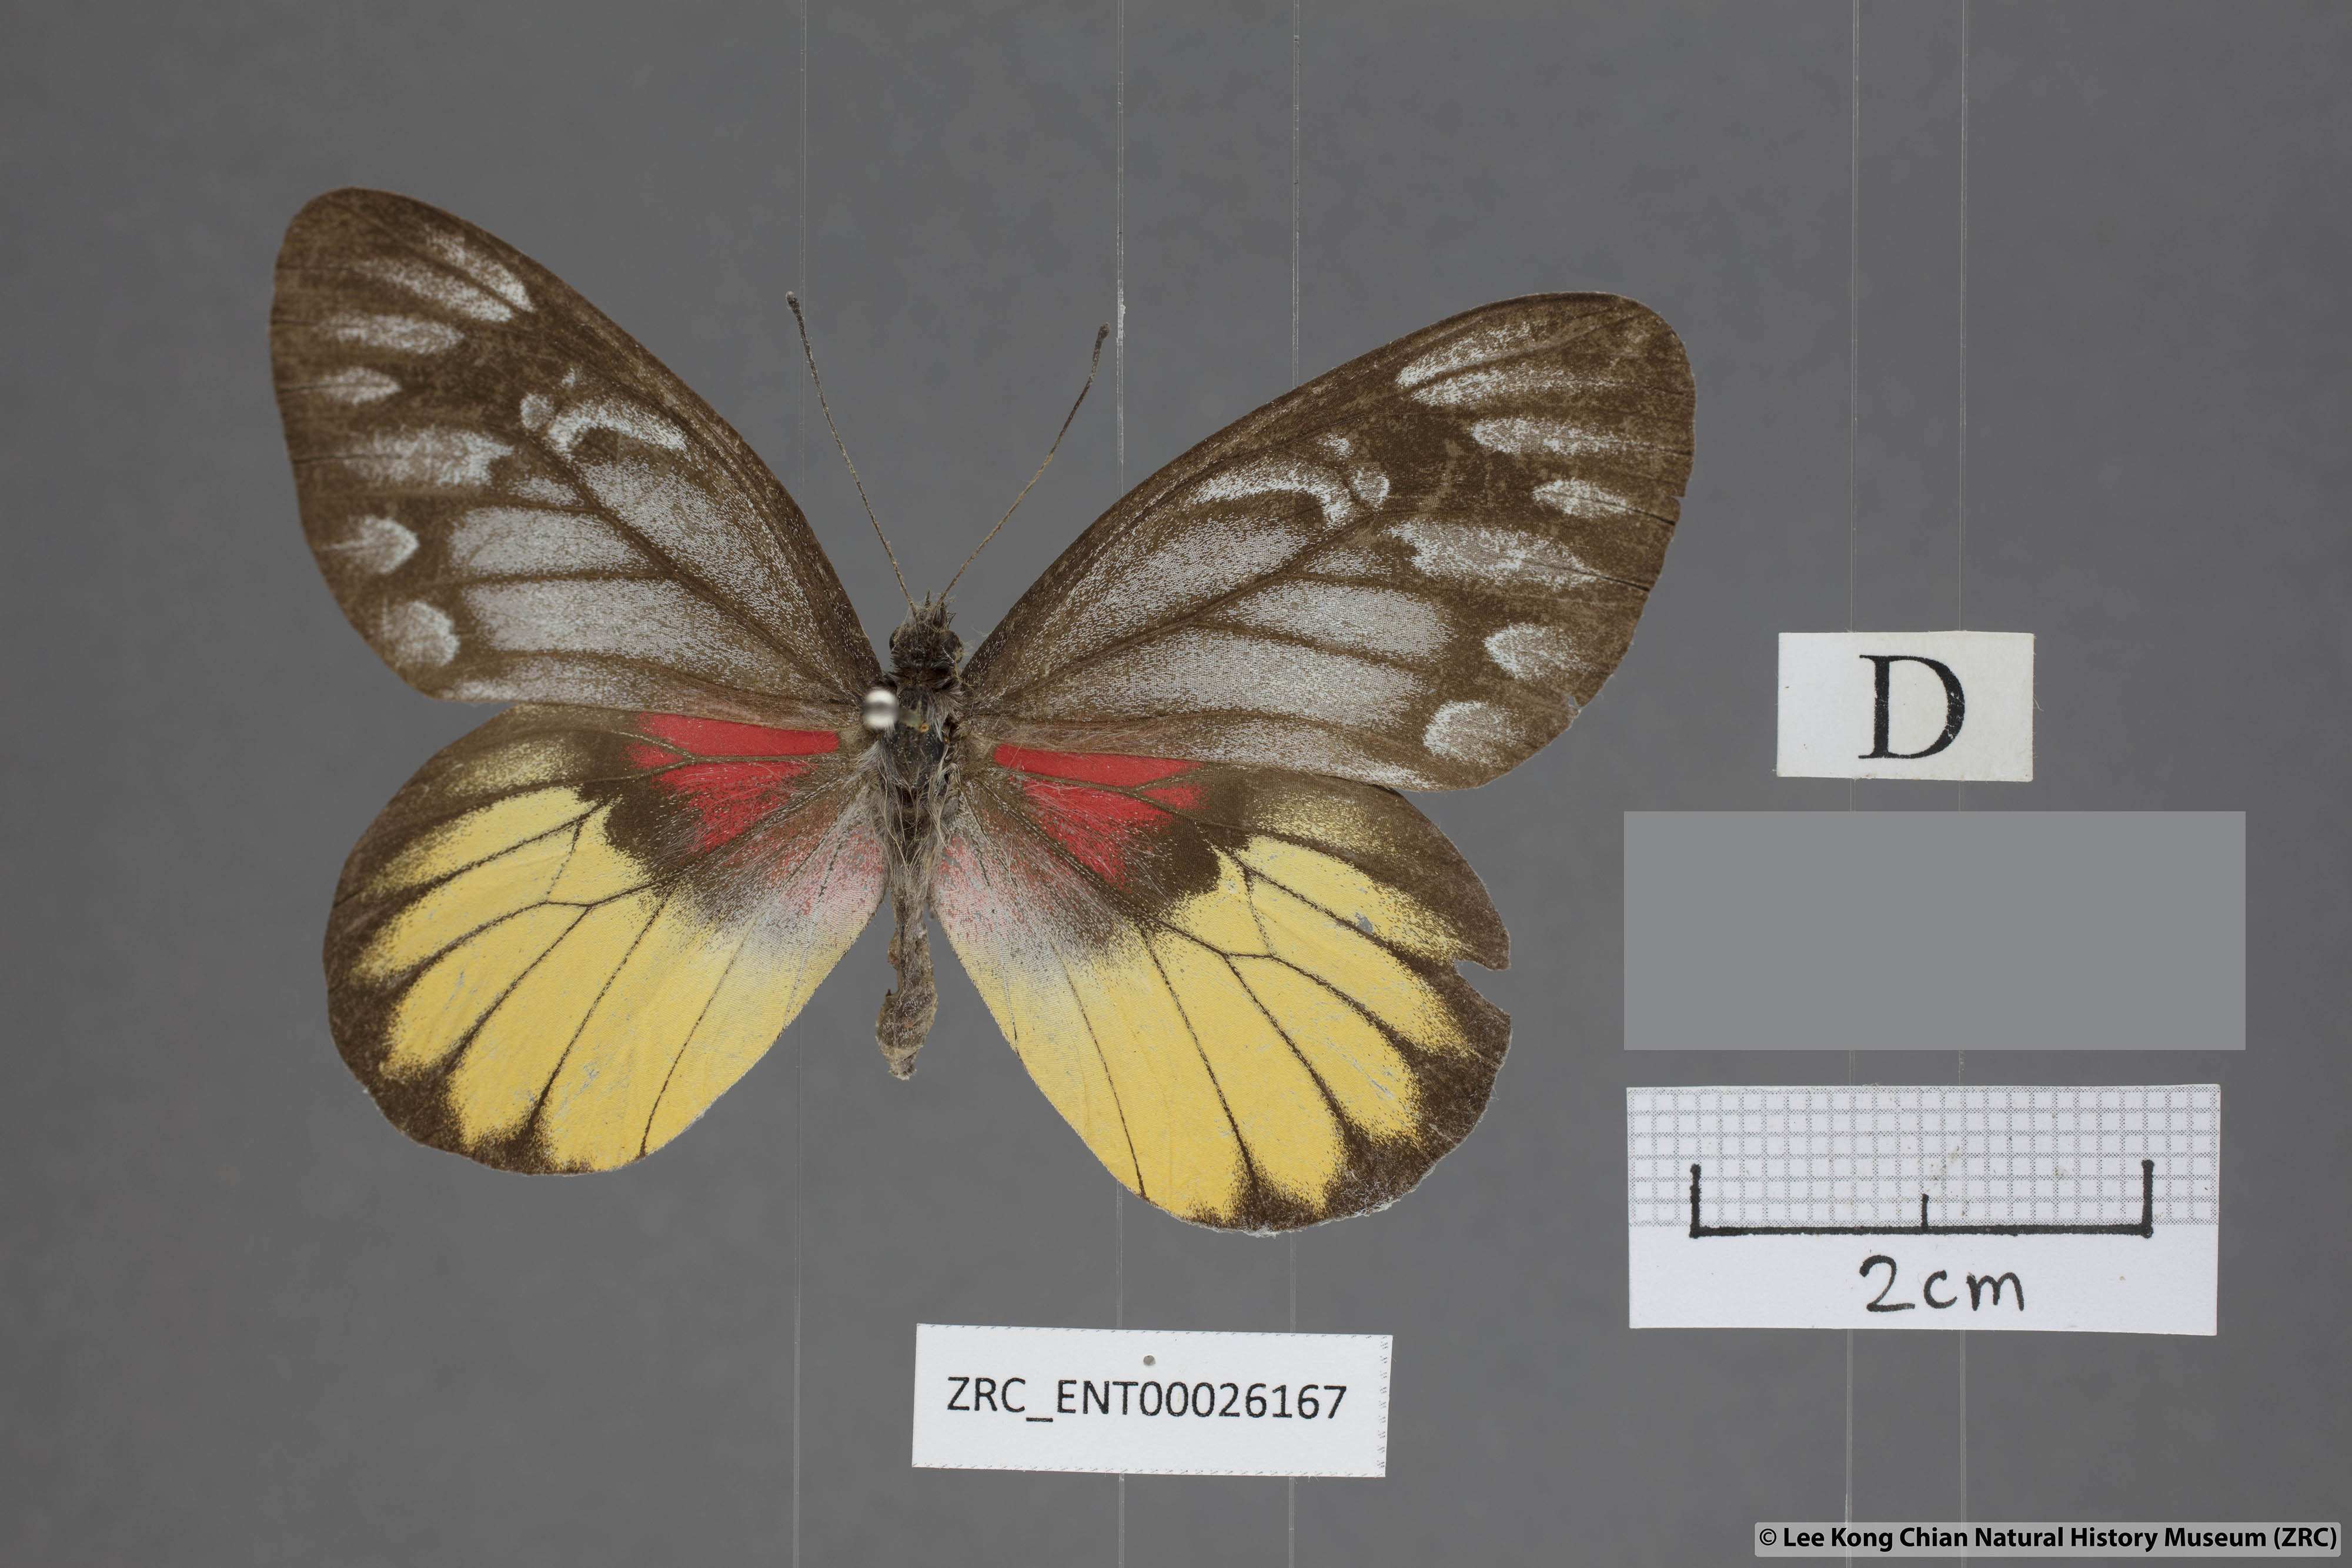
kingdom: Animalia
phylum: Arthropoda
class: Insecta
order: Lepidoptera
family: Pieridae
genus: Delias
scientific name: Delias acalis
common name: Red-breast jezebel
